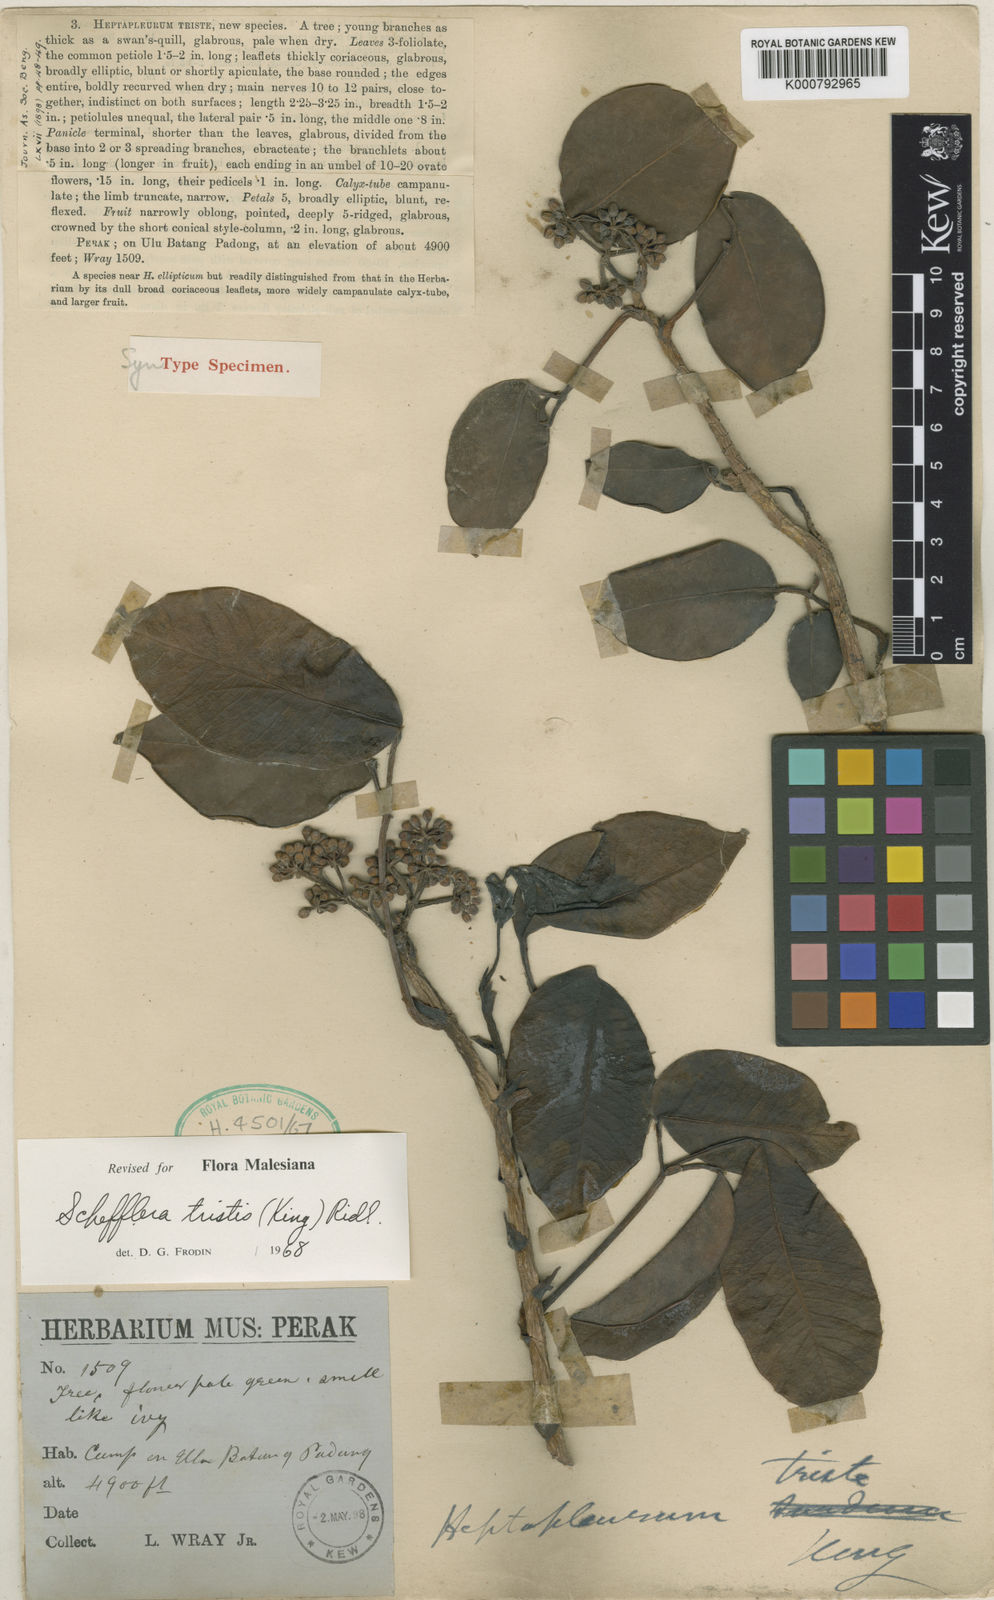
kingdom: Plantae
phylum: Tracheophyta
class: Magnoliopsida
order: Apiales
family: Araliaceae
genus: Heptapleurum
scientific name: Heptapleurum triste
